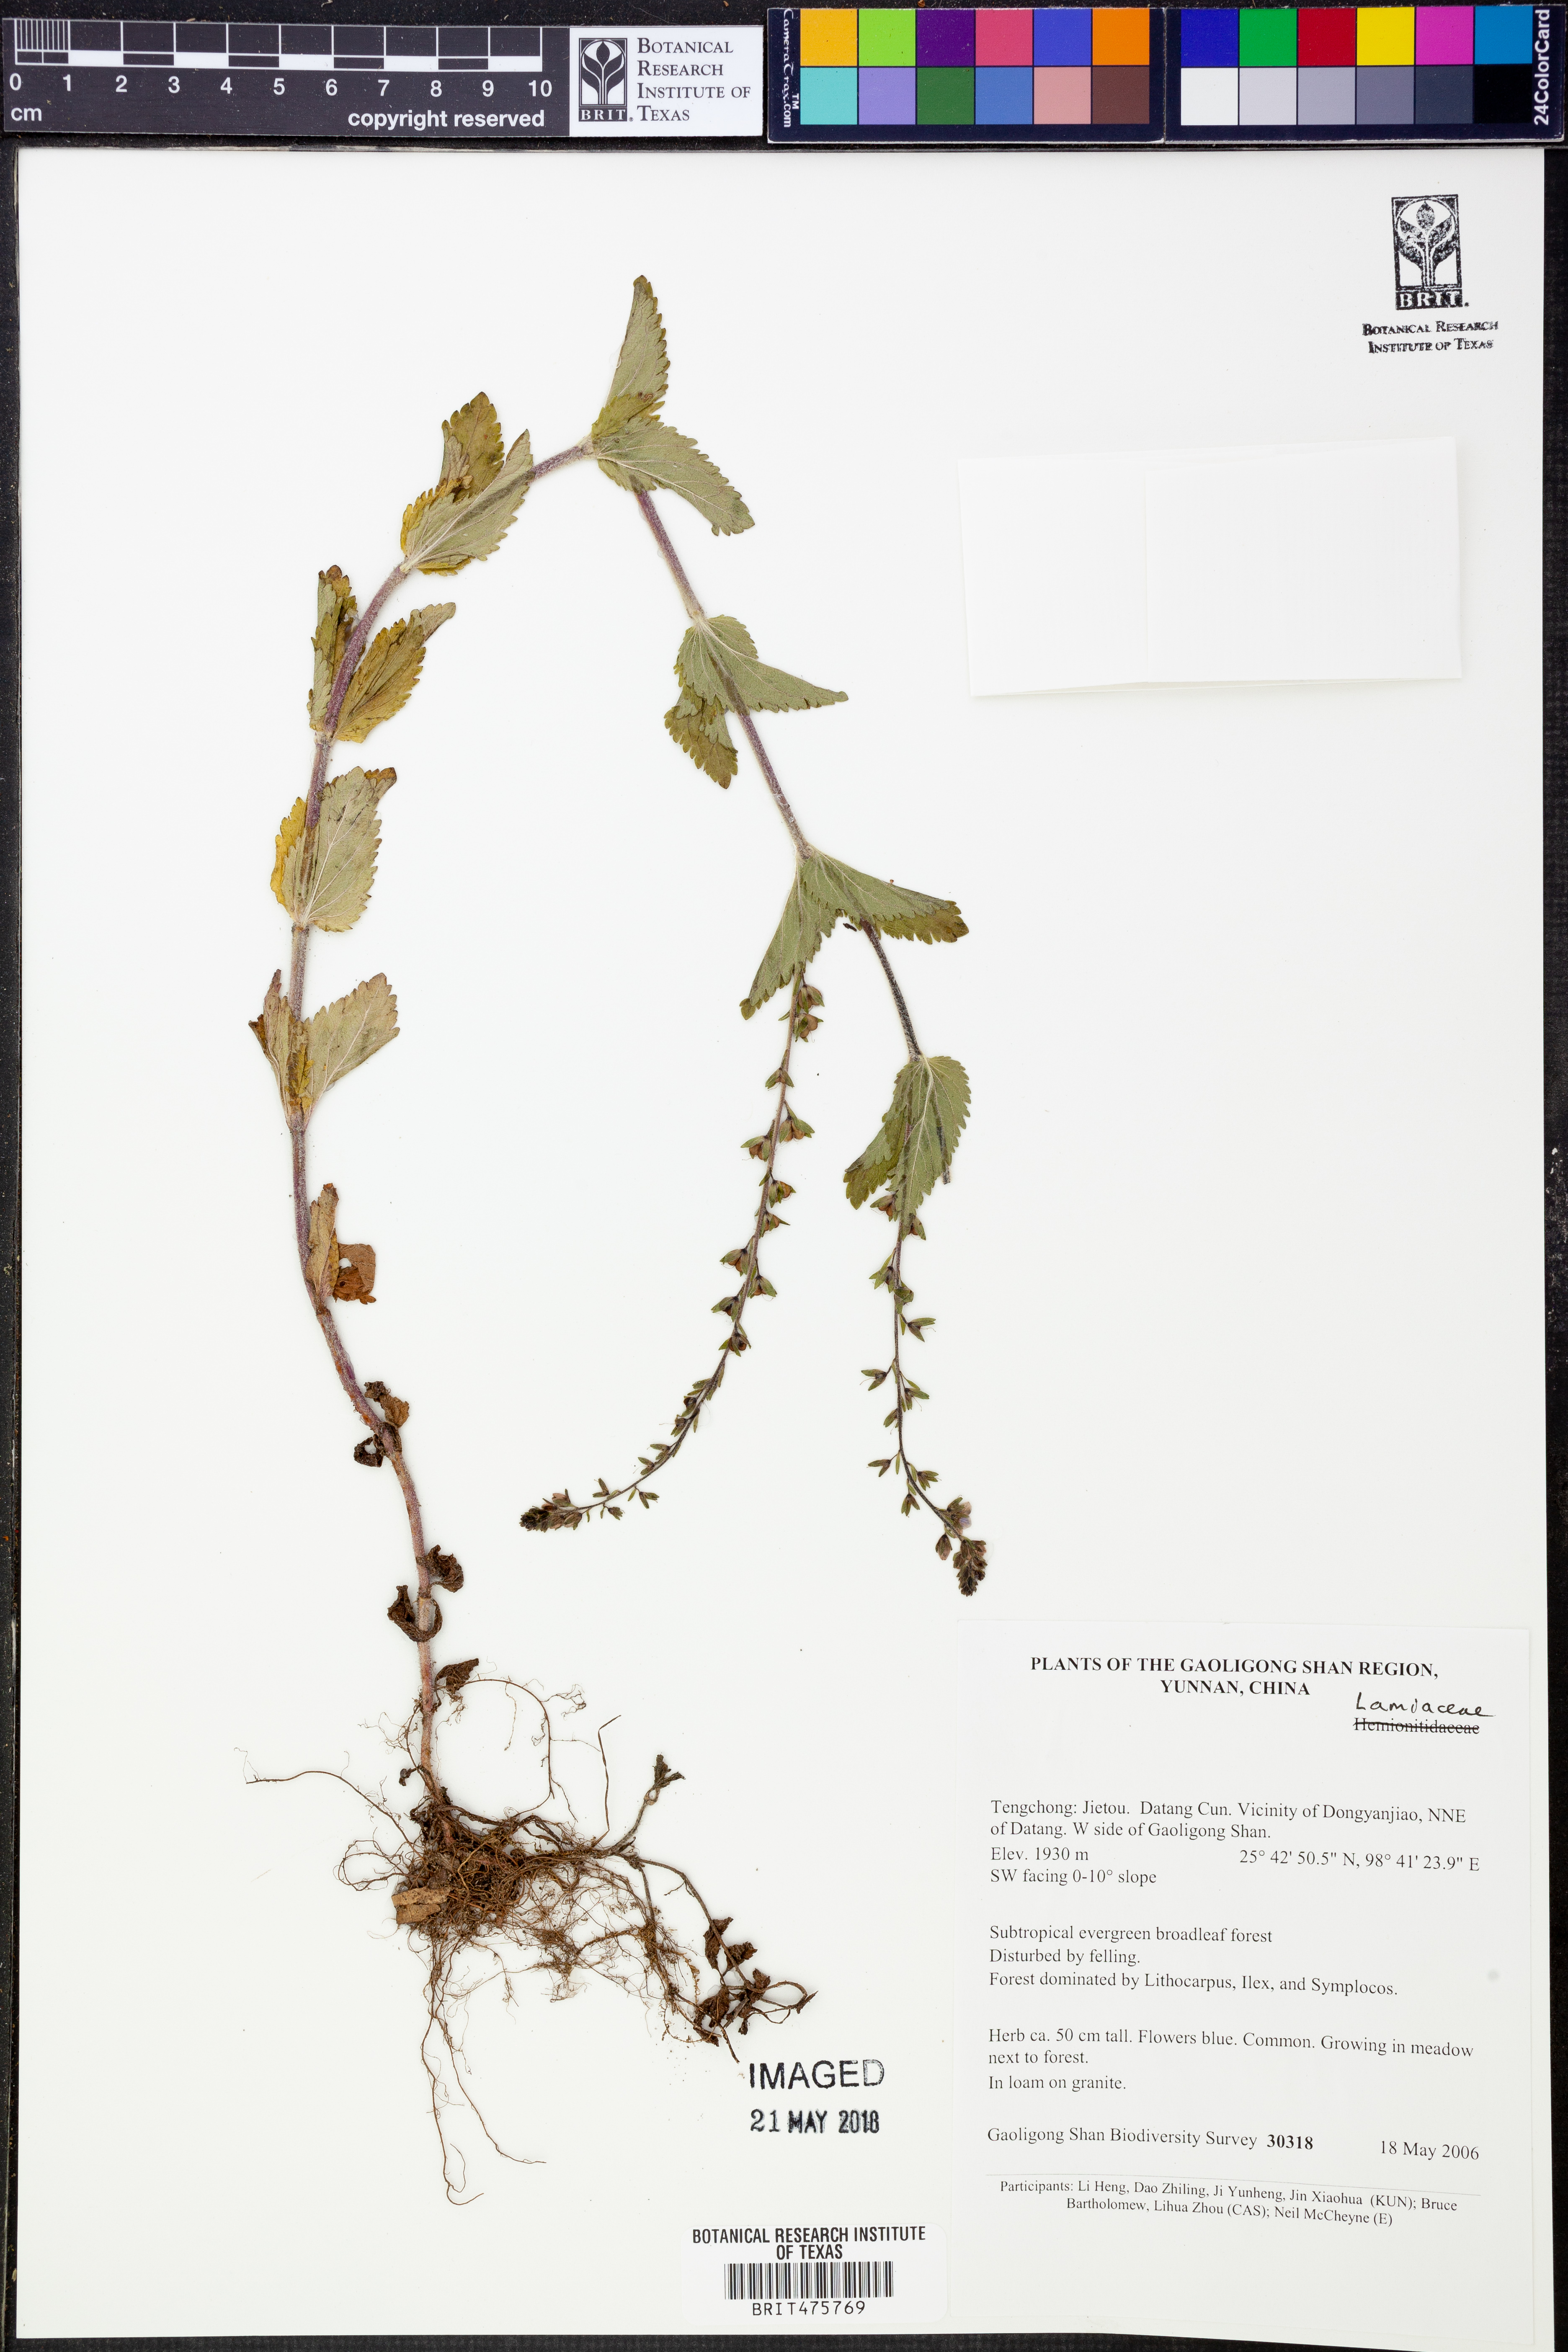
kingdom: Plantae
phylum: Tracheophyta
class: Magnoliopsida
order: Lamiales
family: Lamiaceae
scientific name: Lamiaceae
